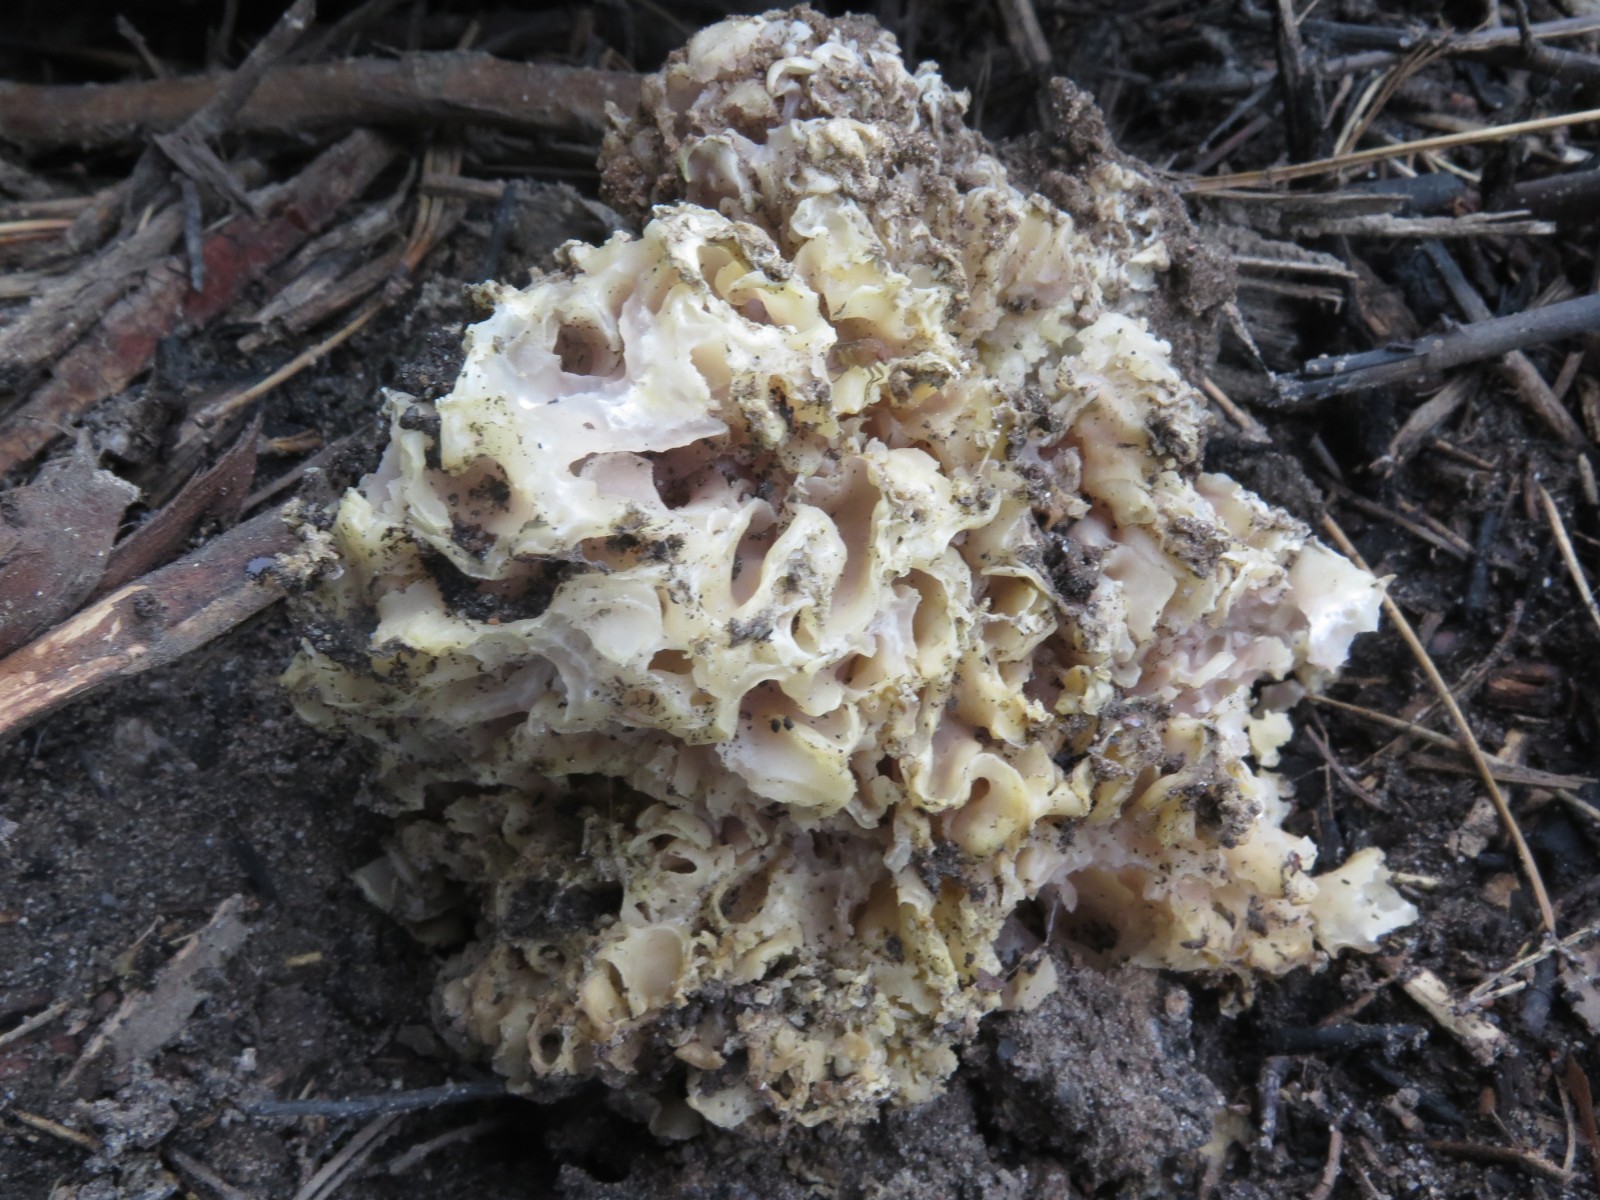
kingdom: Fungi
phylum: Ascomycota
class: Pezizomycetes
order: Pezizales
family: Pezizaceae
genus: Daleomyces
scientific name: Daleomyces phillipsii
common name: blomkåls-bægersvamp
